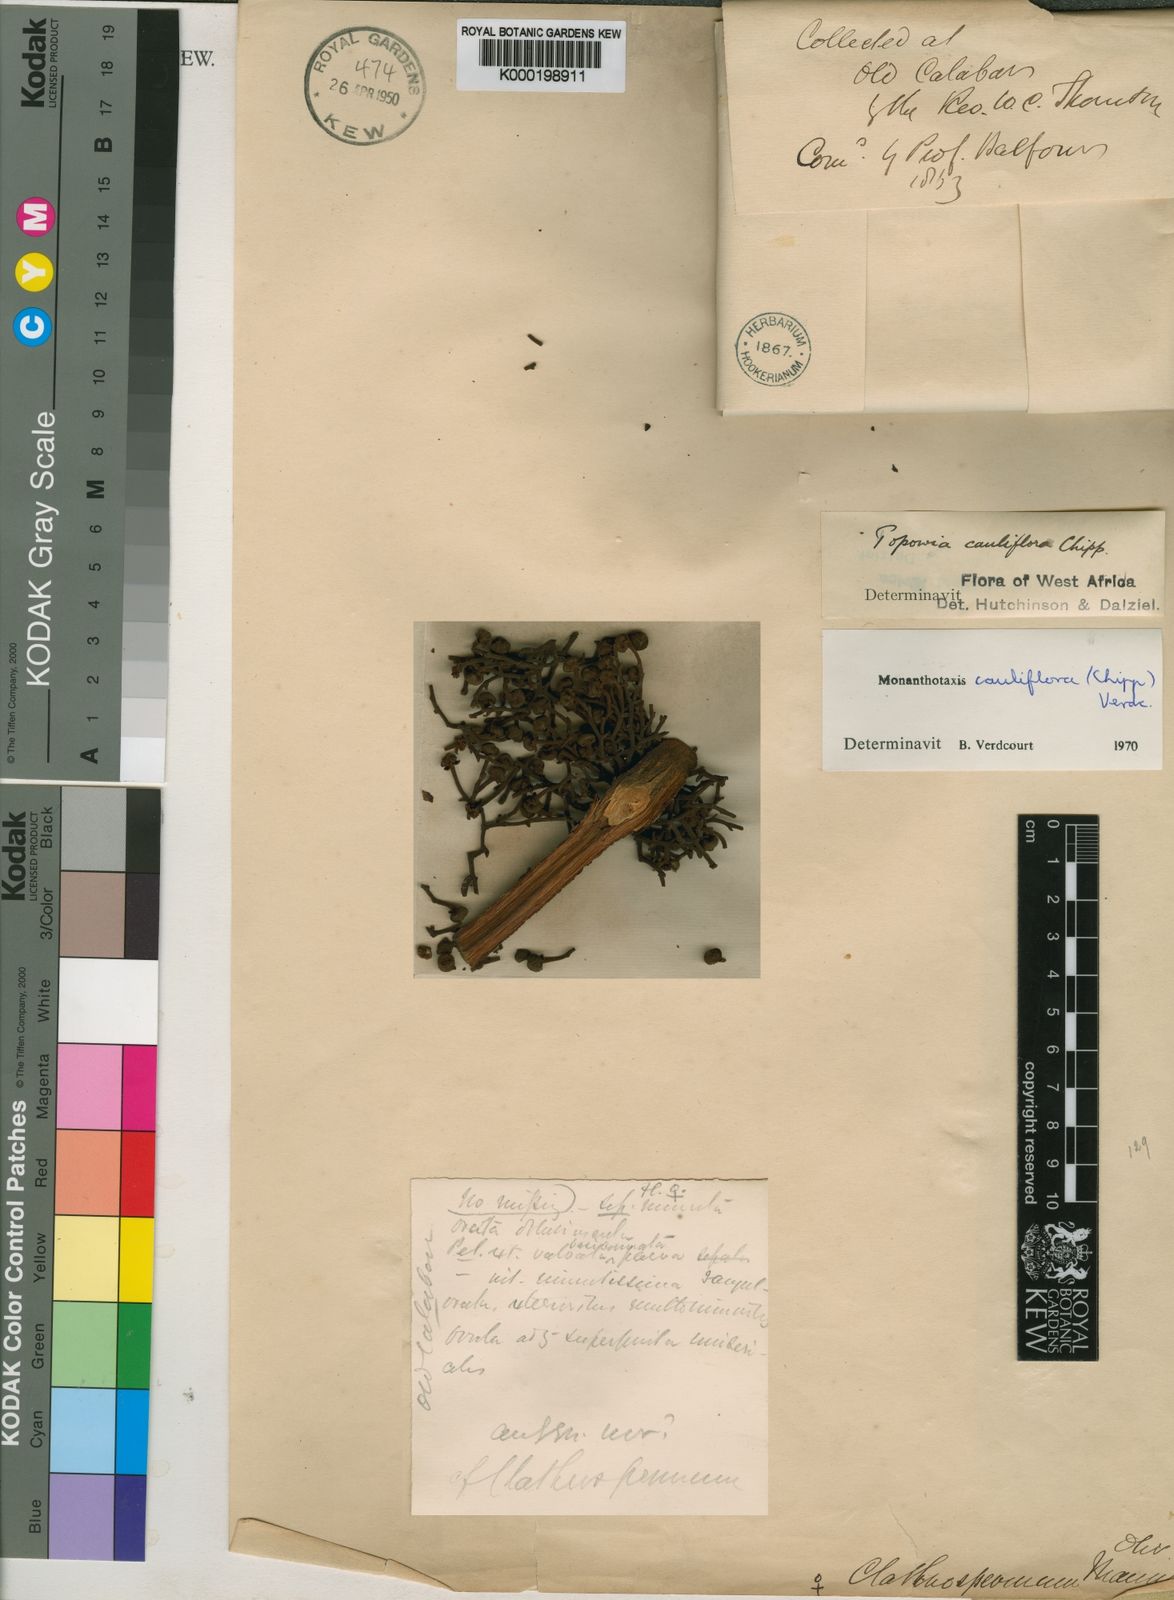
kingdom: Plantae
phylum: Tracheophyta
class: Magnoliopsida
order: Magnoliales
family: Annonaceae
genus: Monanthotaxis
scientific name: Monanthotaxis cauliflora
